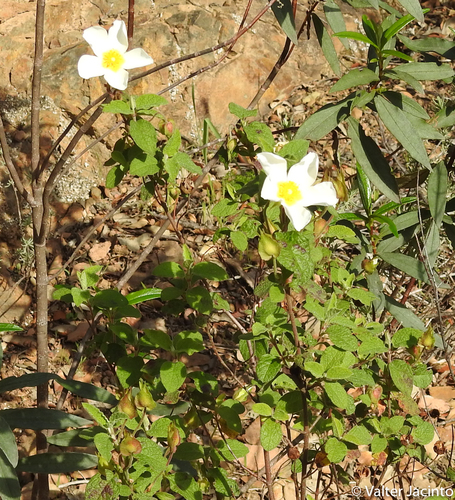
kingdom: Plantae
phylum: Tracheophyta
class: Magnoliopsida
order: Malvales
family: Cistaceae
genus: Cistus
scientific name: Cistus salviifolius
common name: Salvia cistus
